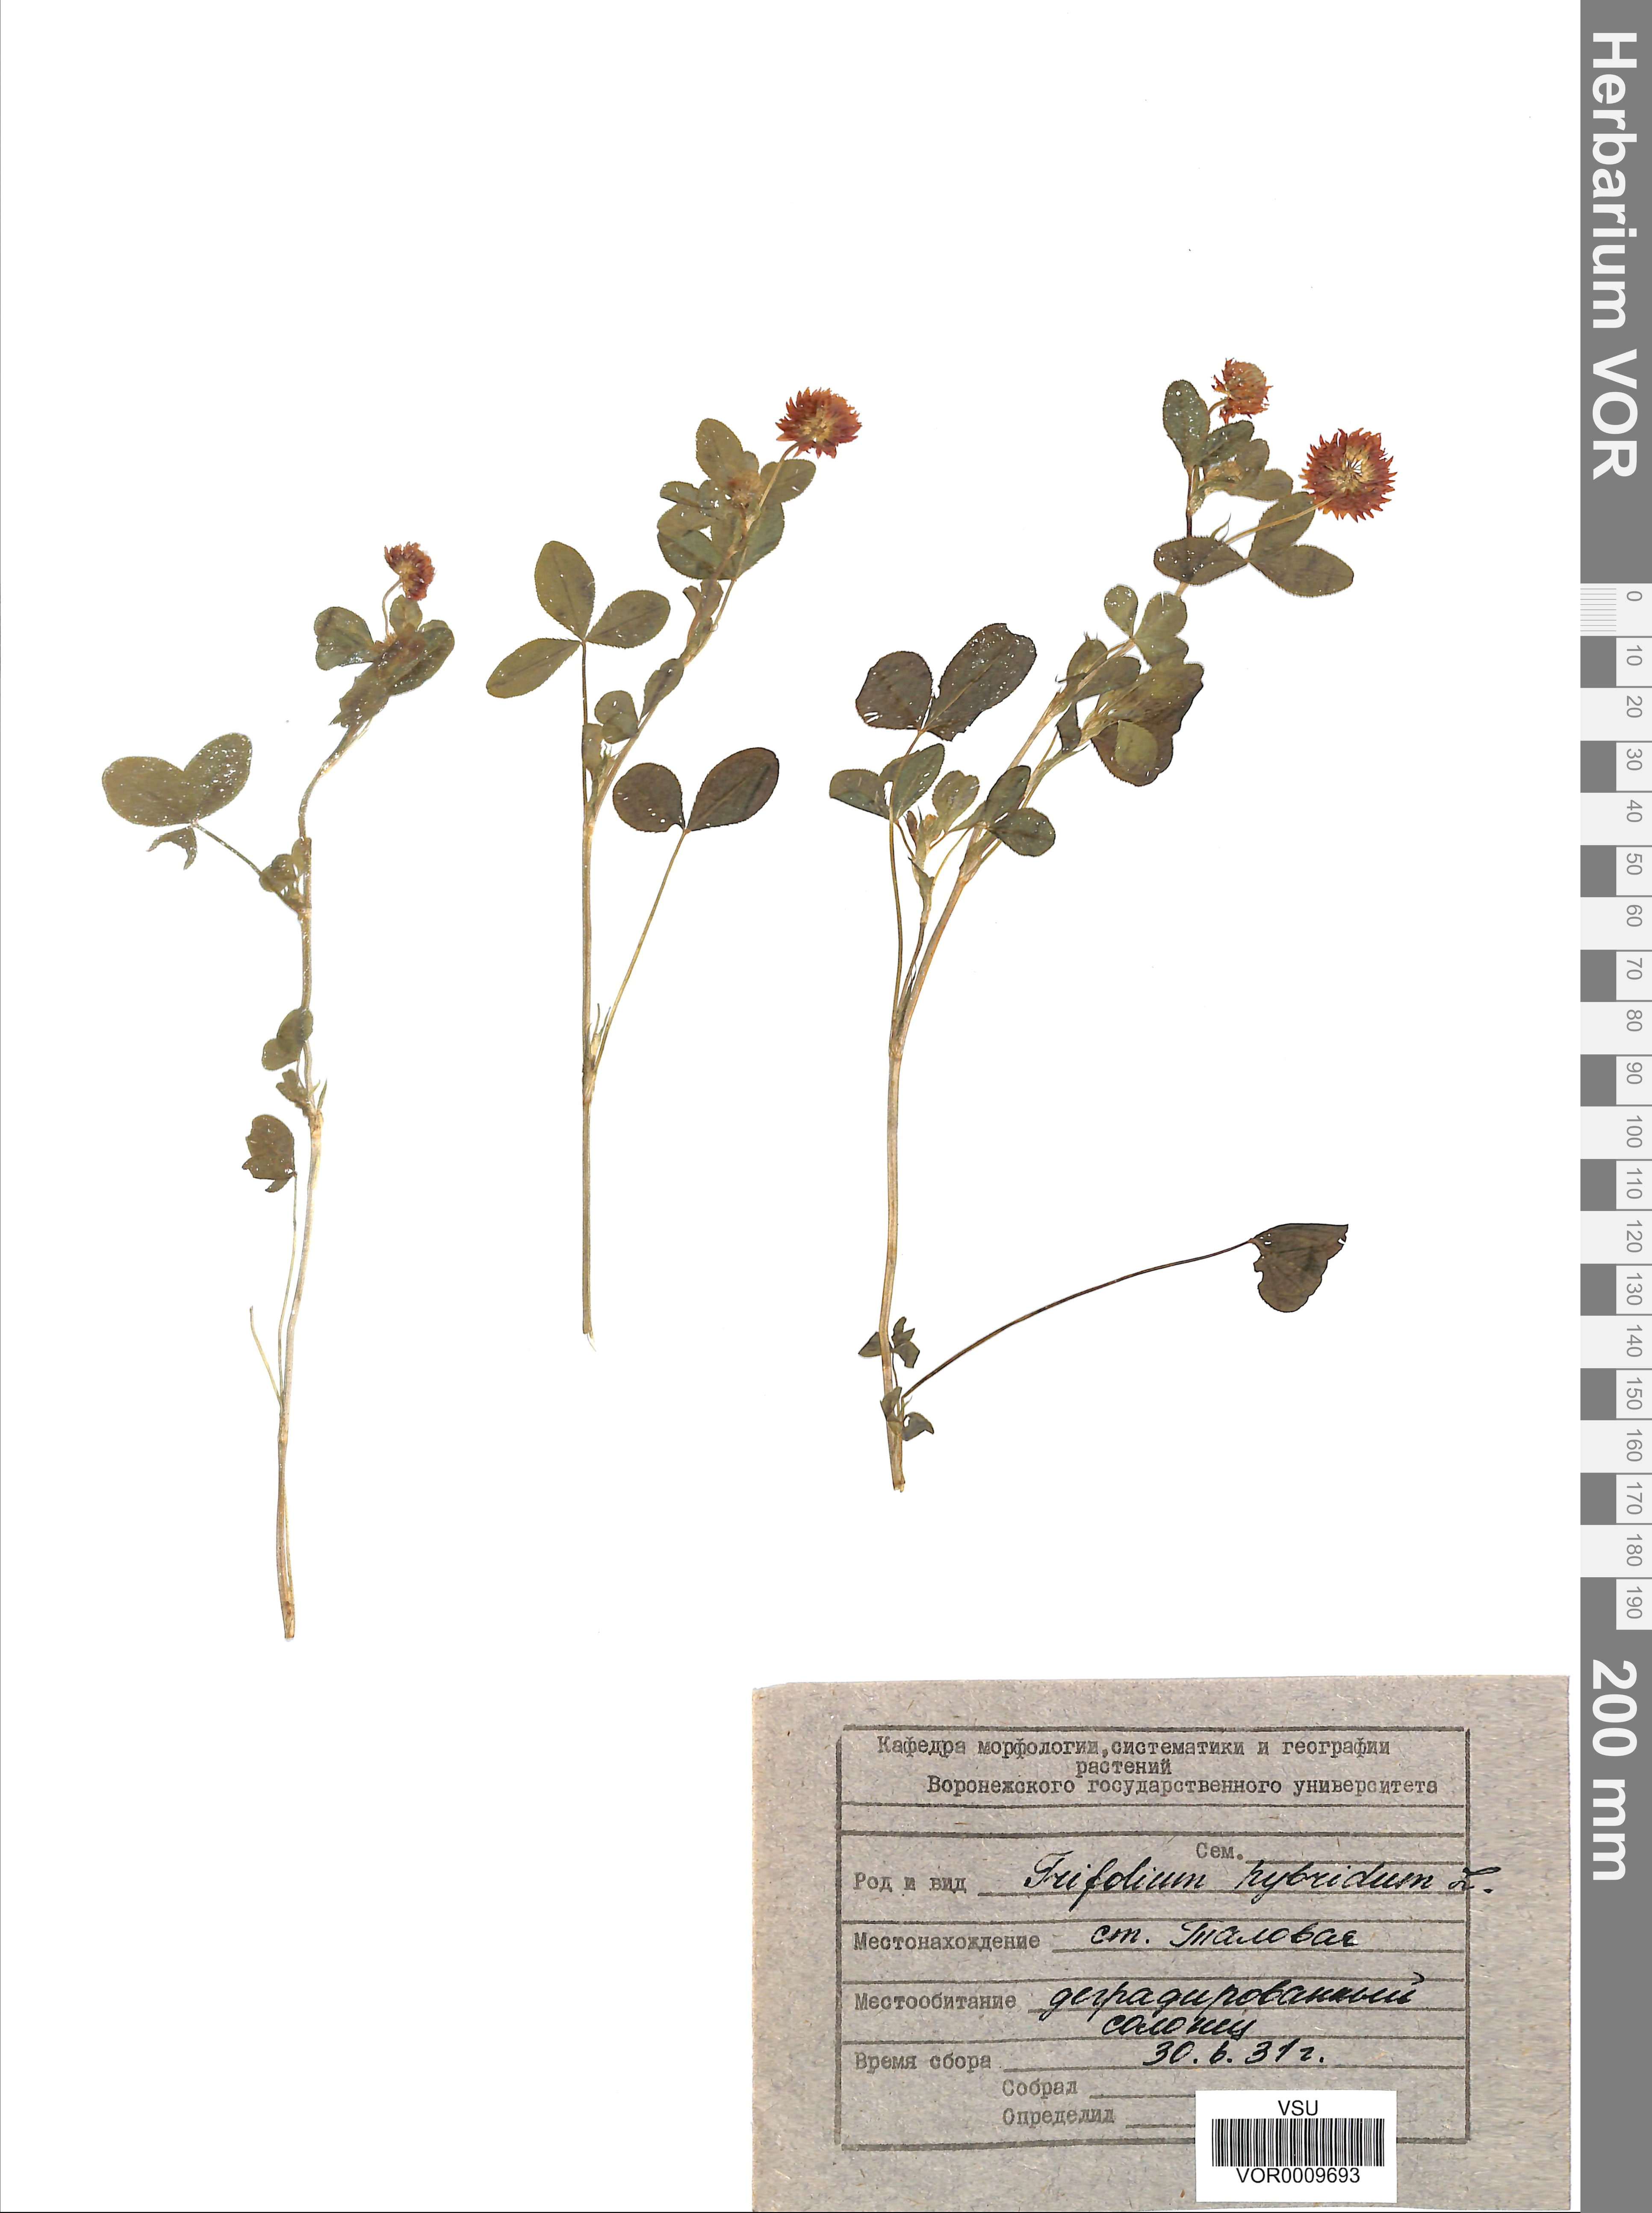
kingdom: Plantae
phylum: Tracheophyta
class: Magnoliopsida
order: Fabales
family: Fabaceae
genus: Trifolium
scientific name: Trifolium hybridum
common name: Alsike clover
